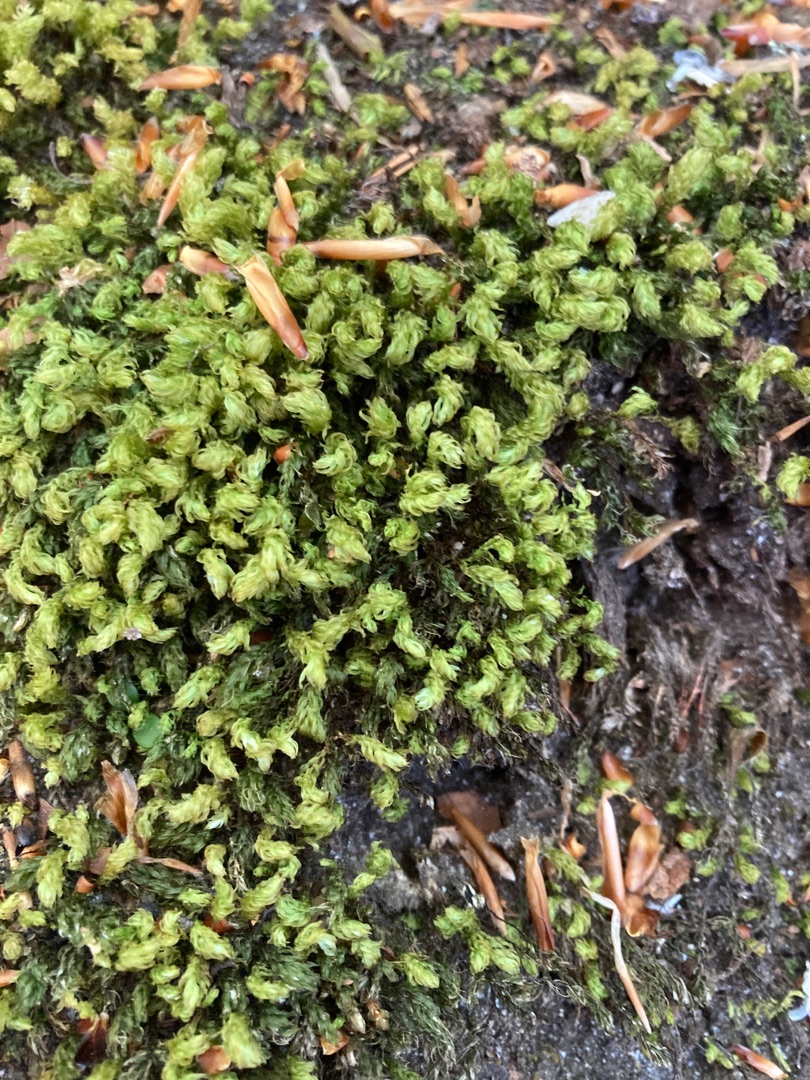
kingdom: Plantae
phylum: Bryophyta
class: Bryopsida
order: Bryales
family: Mniaceae
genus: Mnium
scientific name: Mnium hornum
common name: Brunfiltet stjernemos
